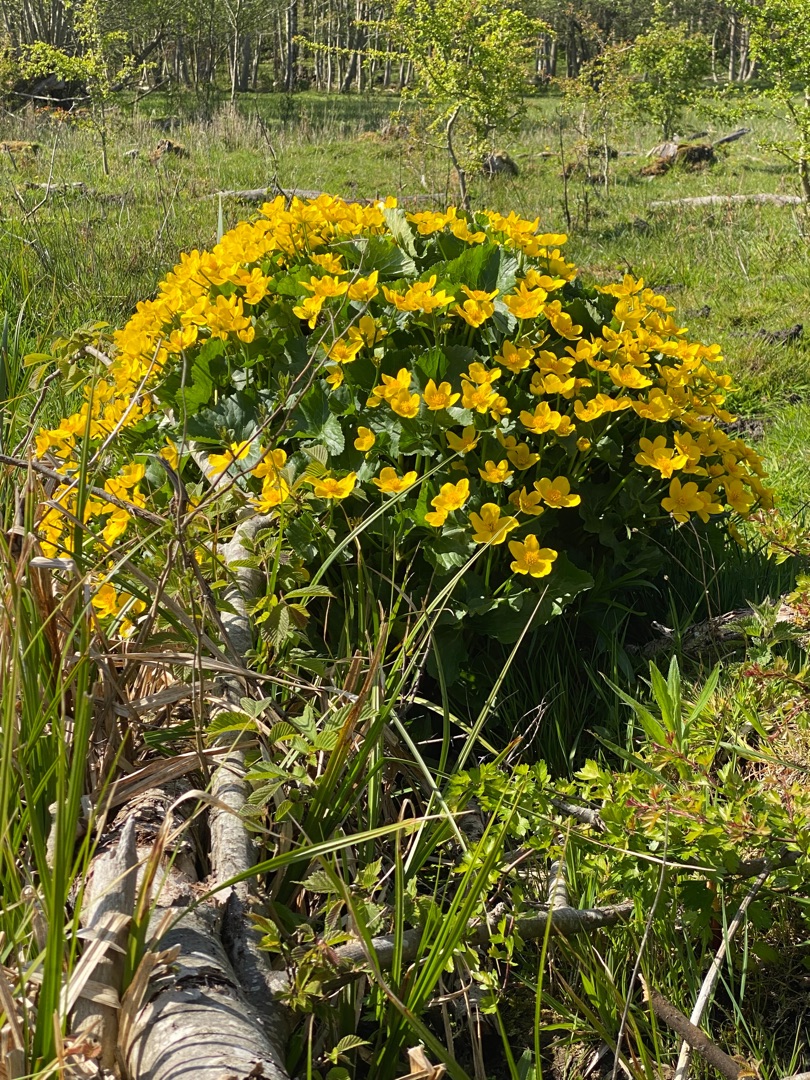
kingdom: Plantae
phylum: Tracheophyta
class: Magnoliopsida
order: Ranunculales
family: Ranunculaceae
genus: Caltha
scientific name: Caltha palustris
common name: Eng-kabbeleje
